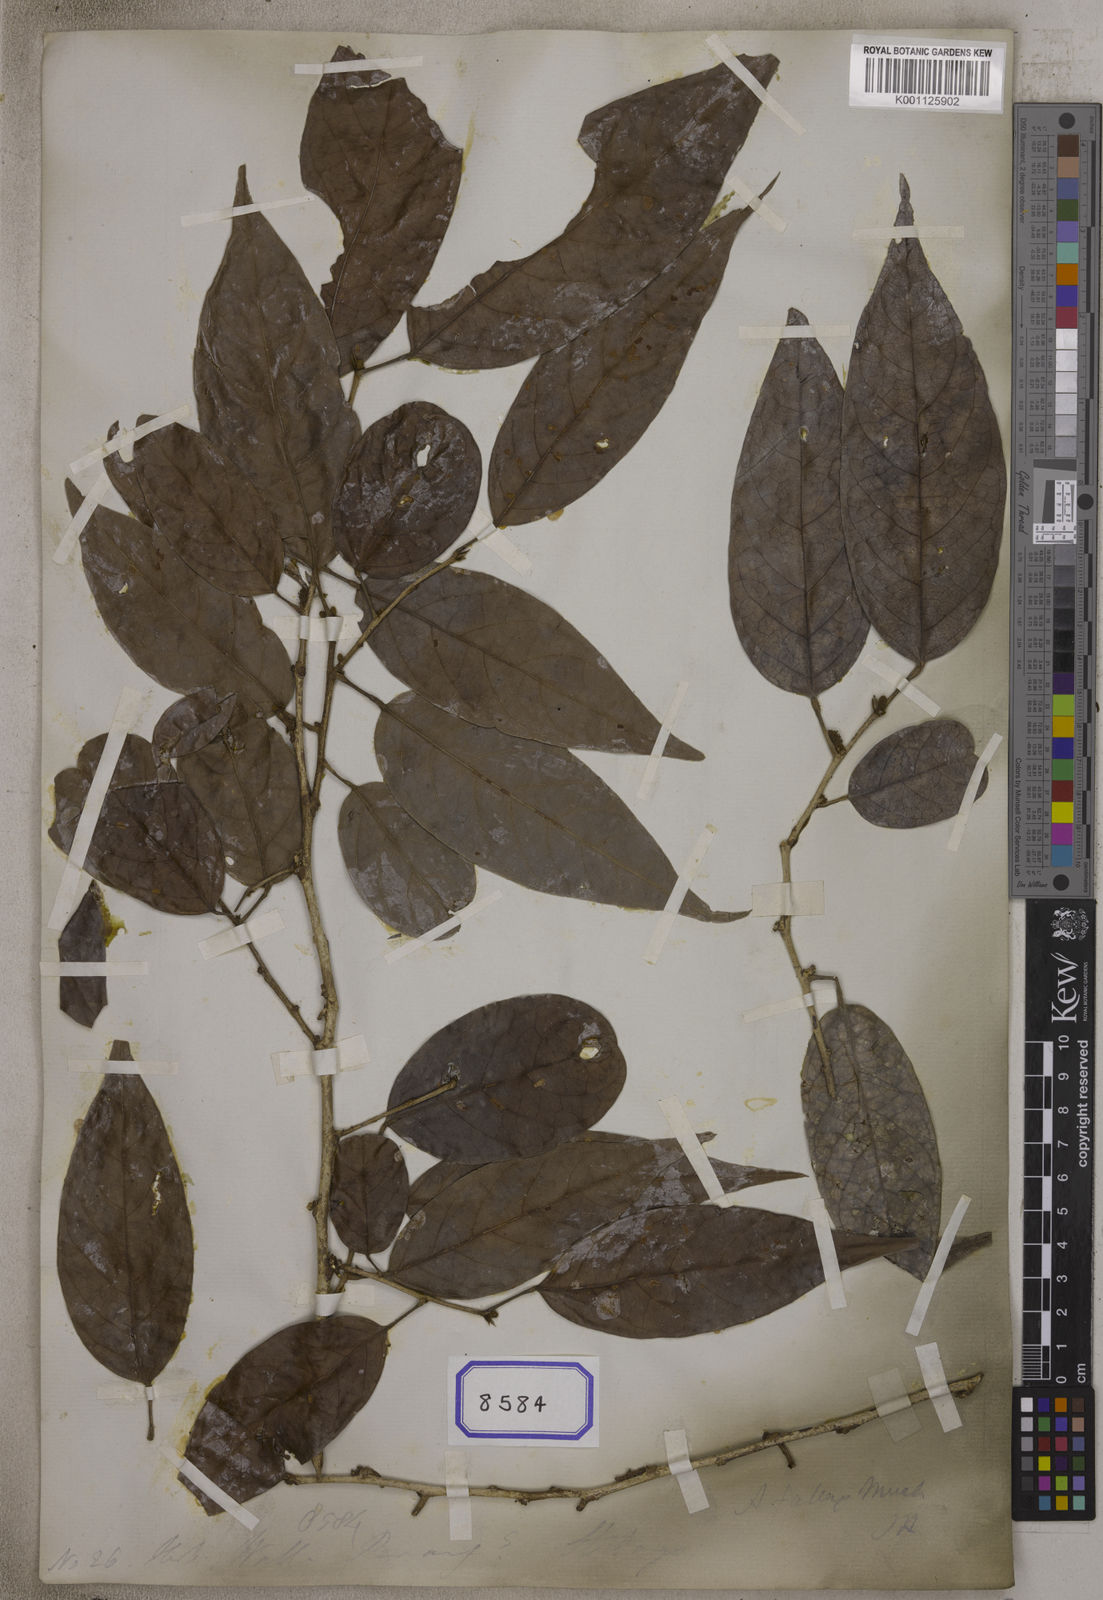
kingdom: Plantae
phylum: Tracheophyta
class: Magnoliopsida
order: Malpighiales
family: Phyllanthaceae
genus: Antidesma
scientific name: Antidesma
